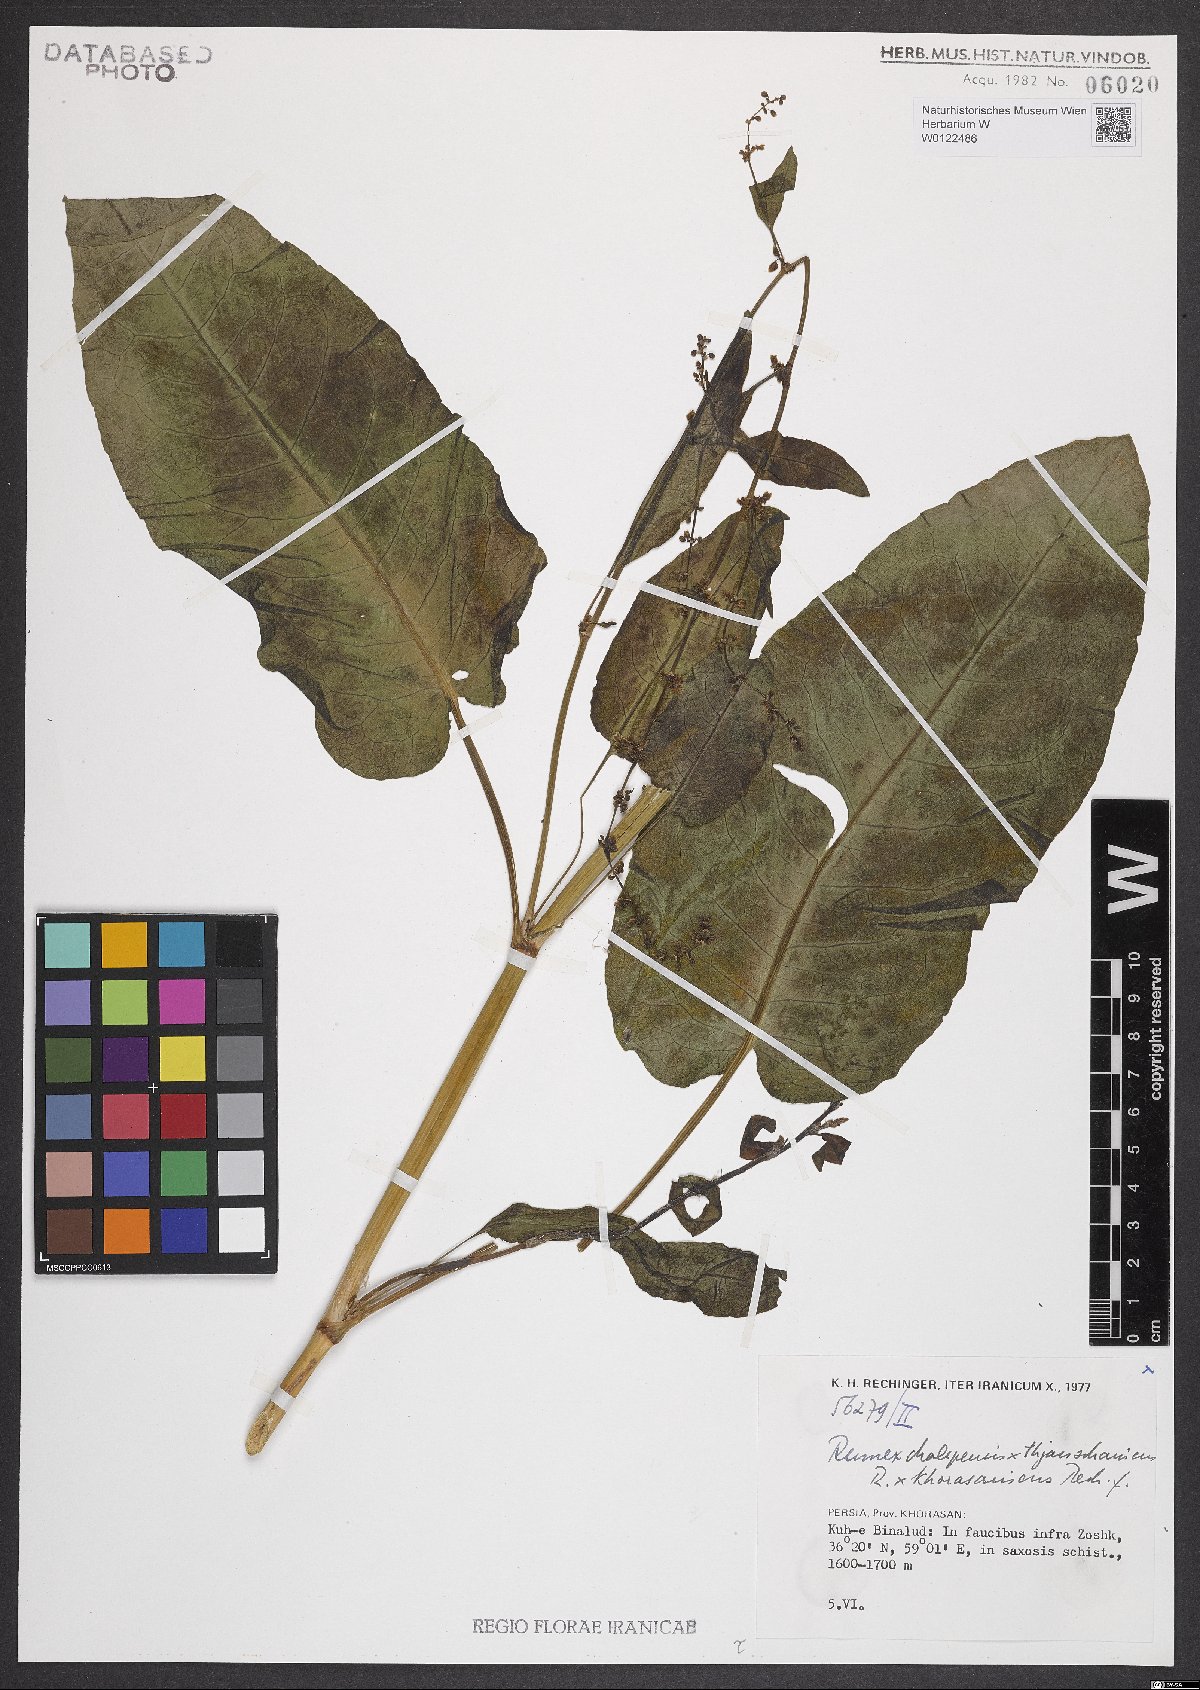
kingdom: Plantae
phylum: Tracheophyta
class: Magnoliopsida
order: Caryophyllales
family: Polygonaceae
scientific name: Polygonaceae
